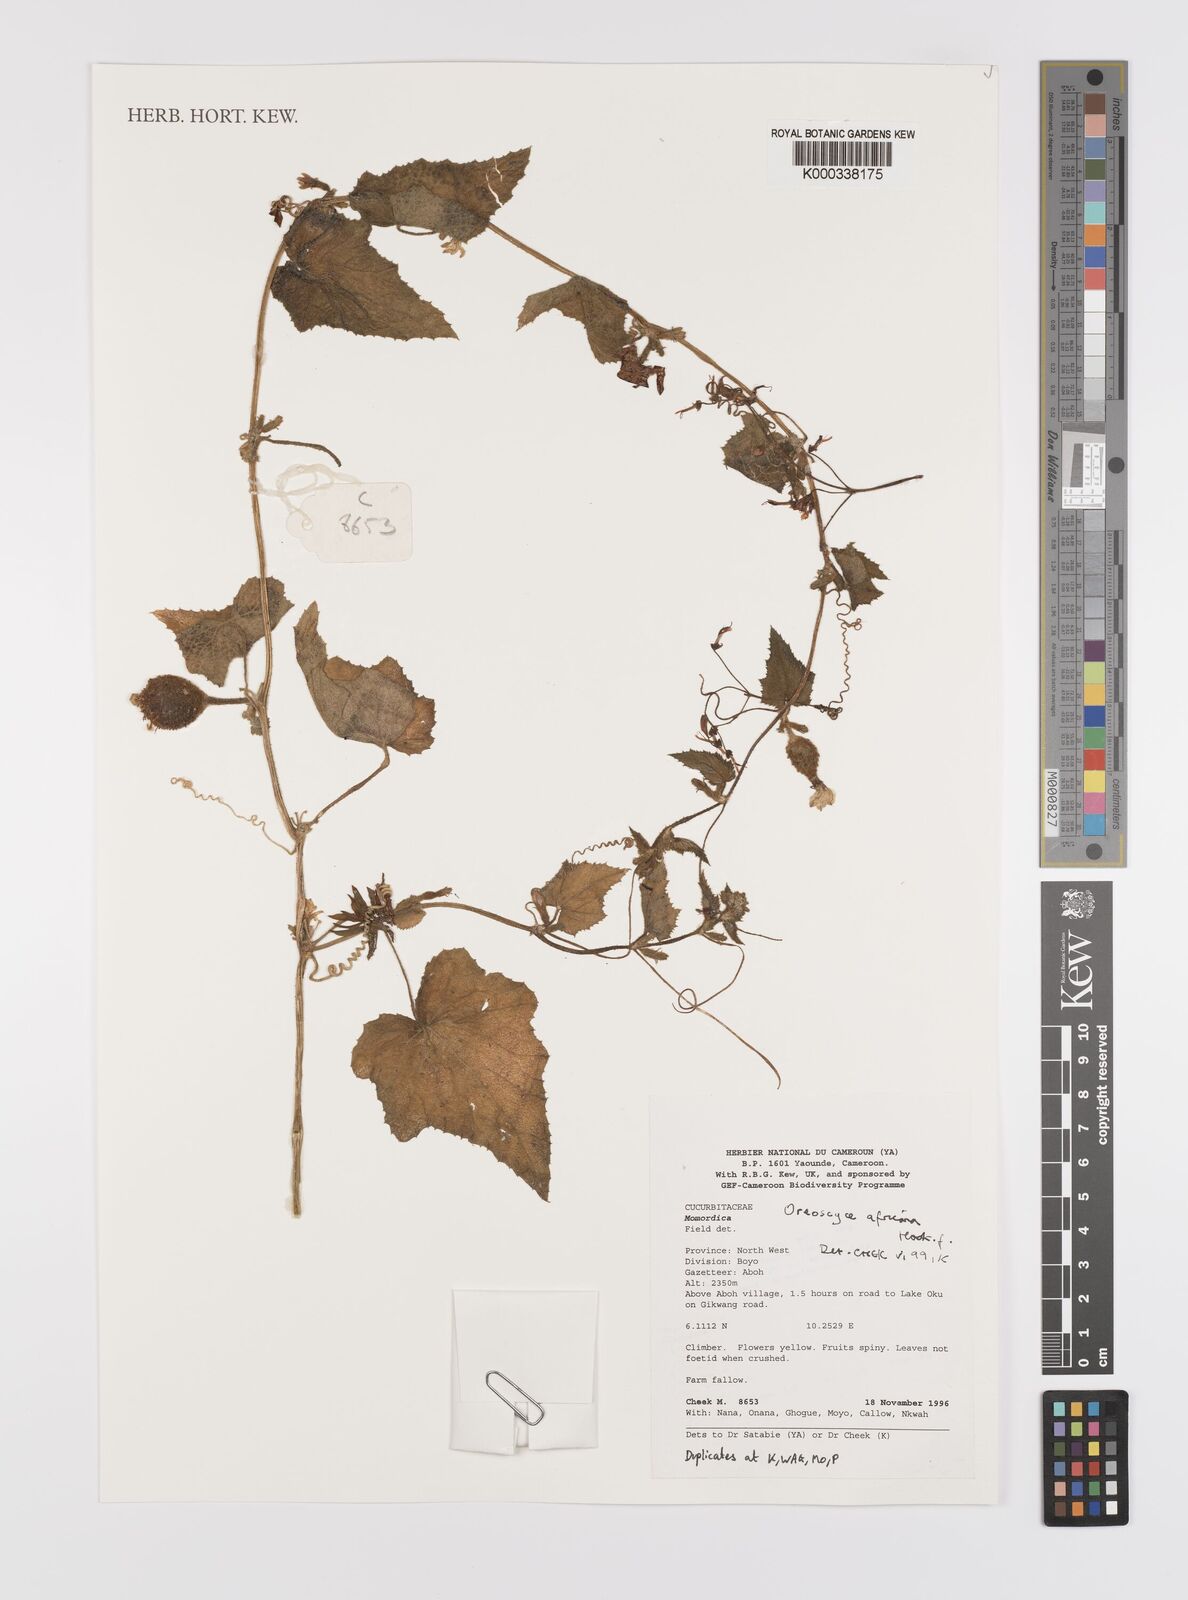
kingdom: Plantae
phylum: Tracheophyta
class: Magnoliopsida
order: Cucurbitales
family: Cucurbitaceae
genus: Cucumis
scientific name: Cucumis oreosyce
